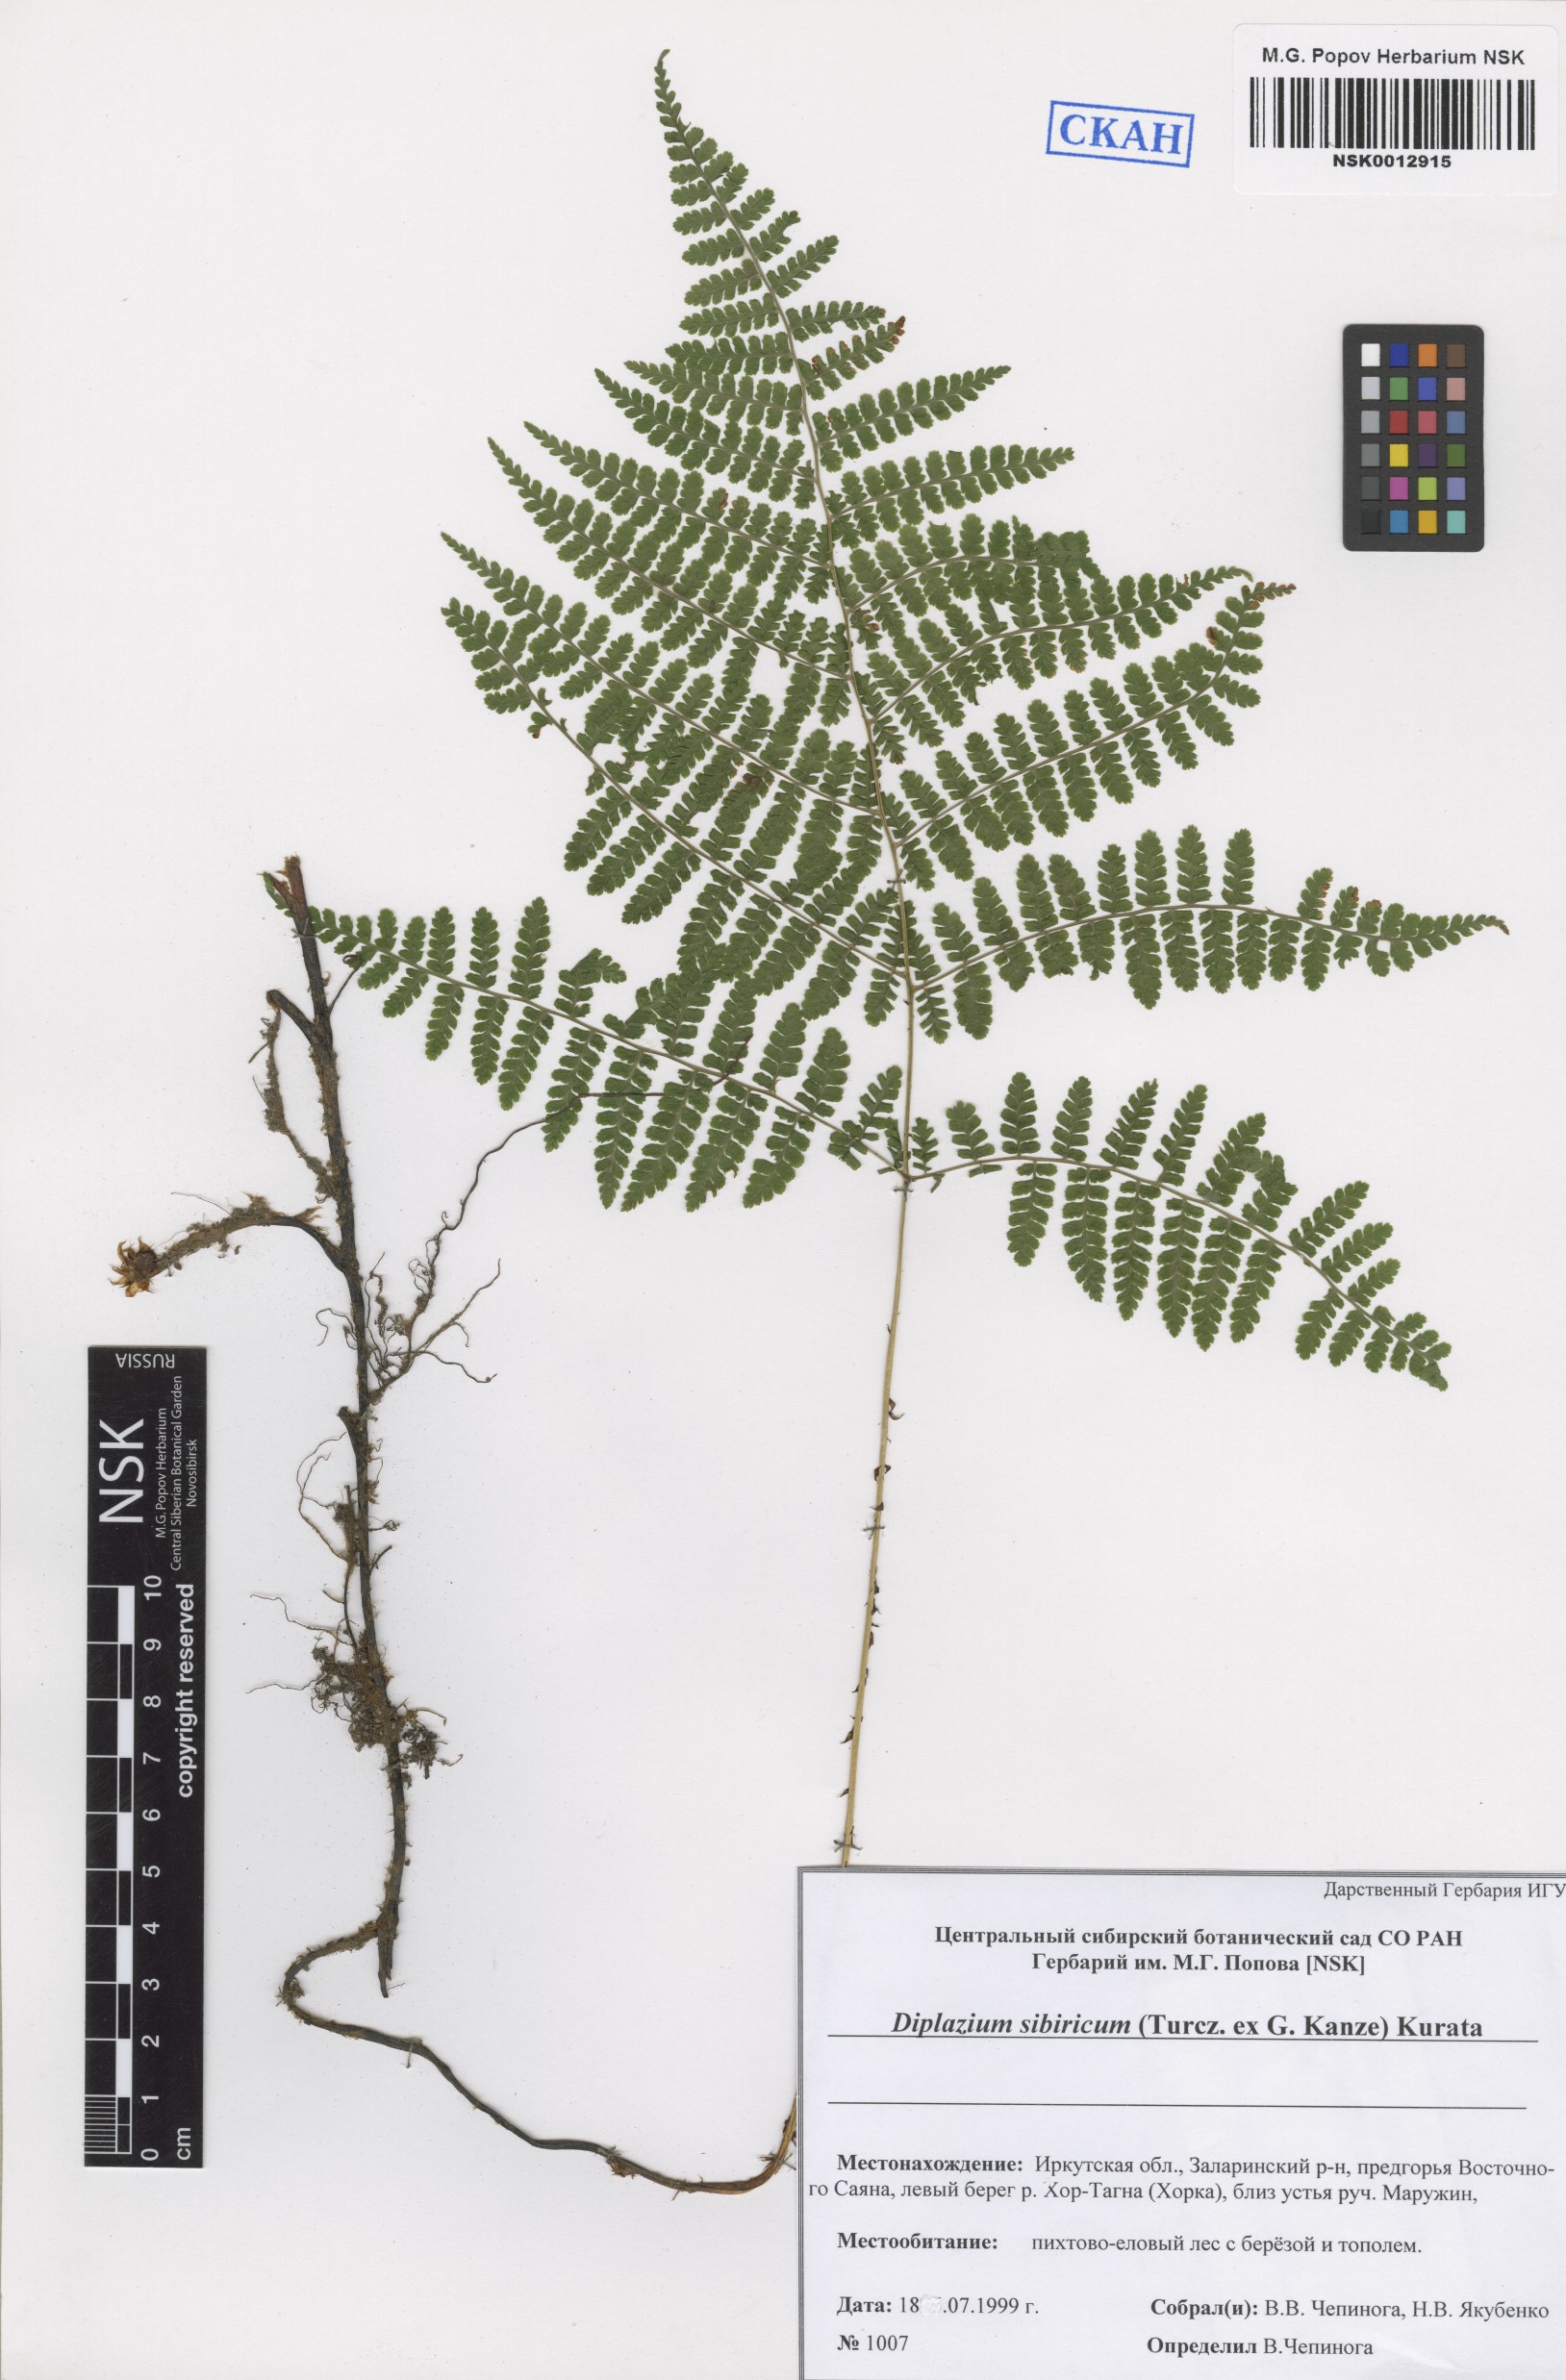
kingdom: Plantae
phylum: Tracheophyta
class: Polypodiopsida
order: Polypodiales
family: Athyriaceae
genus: Diplazium
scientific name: Diplazium sibiricum
